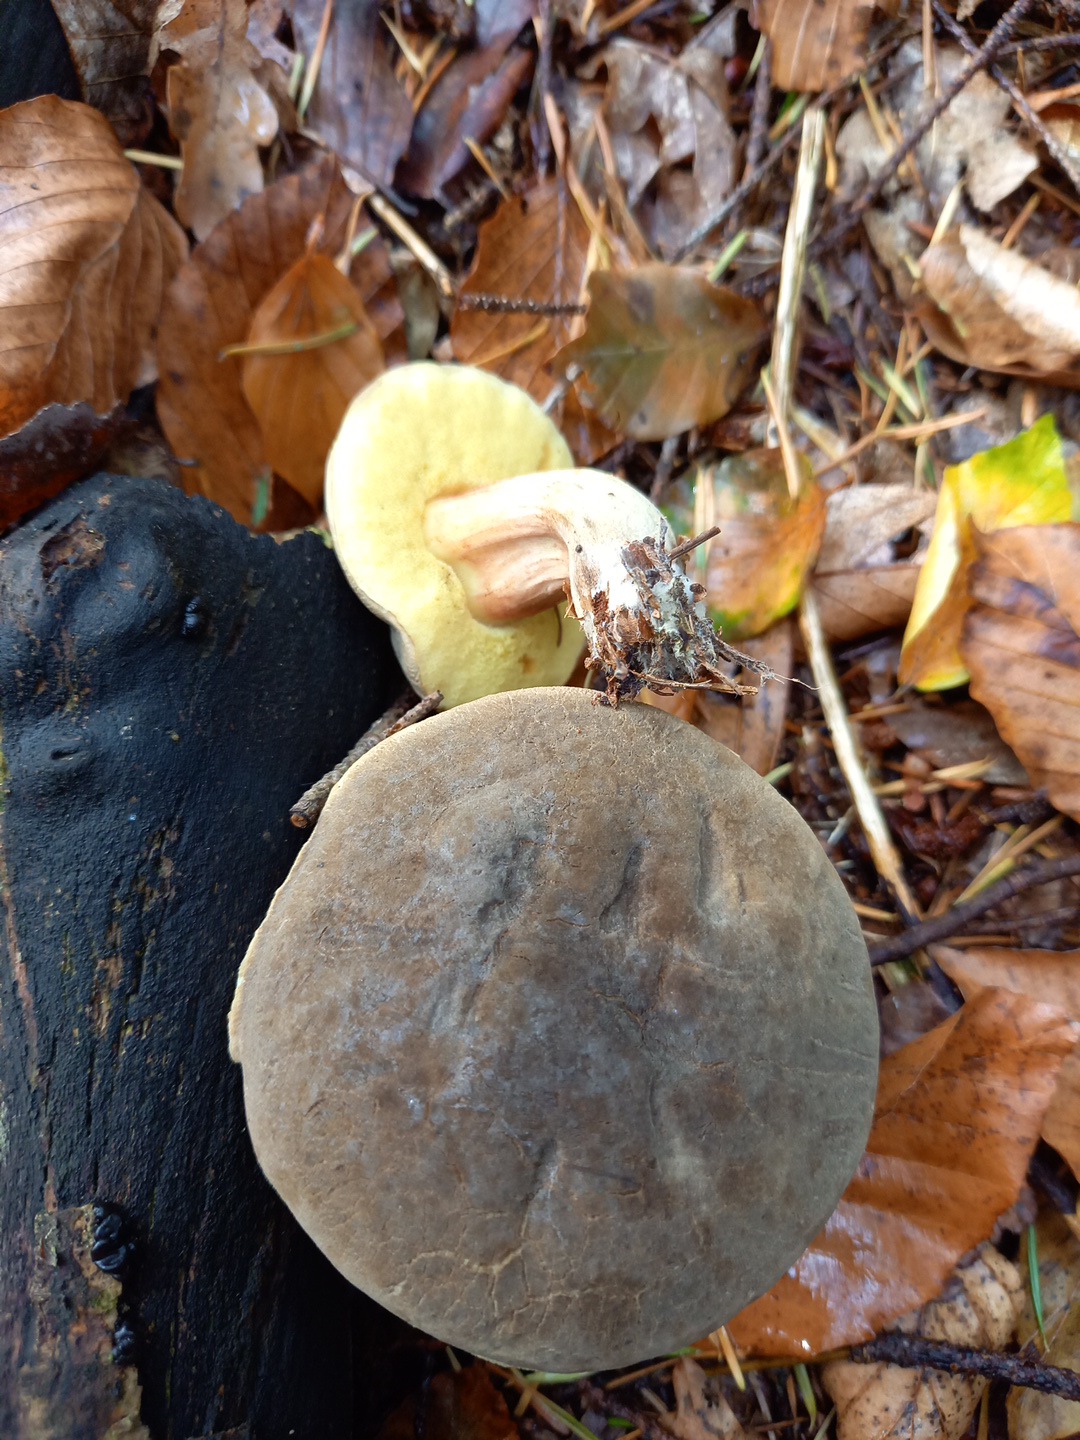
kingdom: Fungi
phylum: Basidiomycota
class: Agaricomycetes
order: Boletales
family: Boletaceae
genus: Xerocomellus
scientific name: Xerocomellus pruinatus
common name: dugget rørhat
